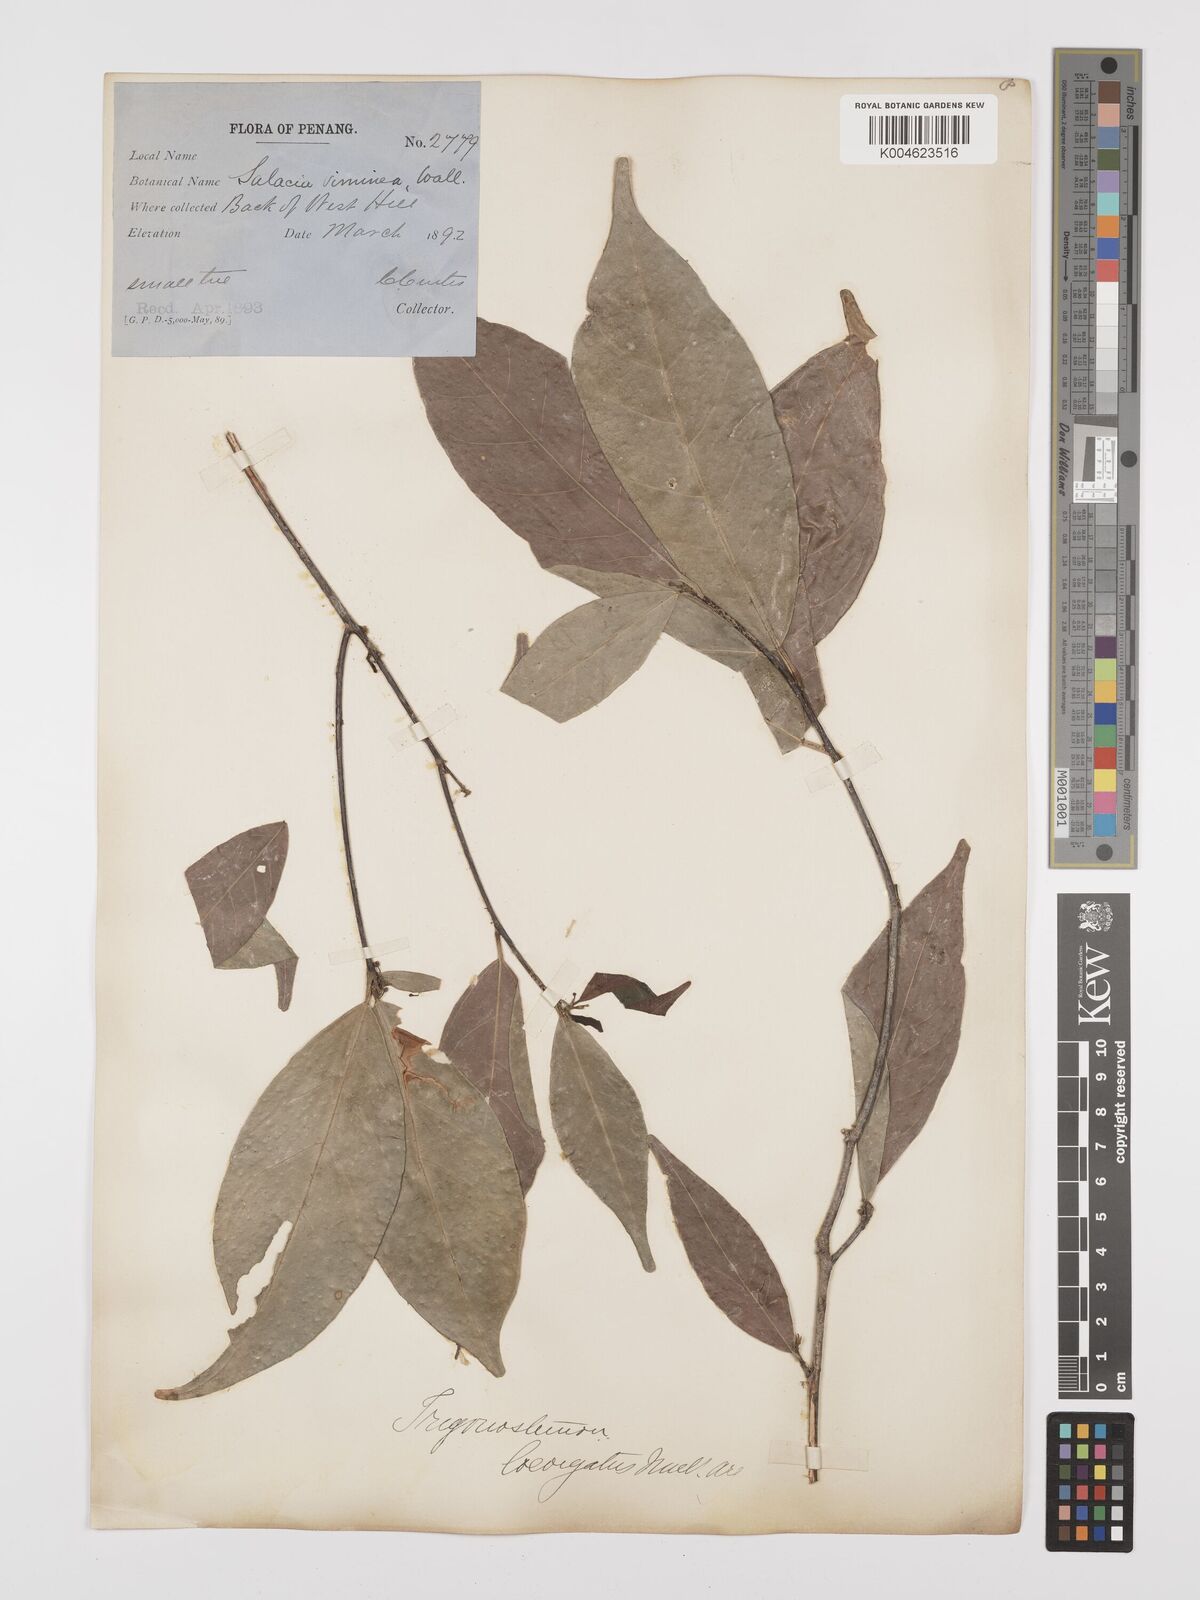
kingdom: Plantae
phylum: Tracheophyta
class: Magnoliopsida
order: Malpighiales
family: Euphorbiaceae
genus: Trigonostemon
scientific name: Trigonostemon laevigatus
